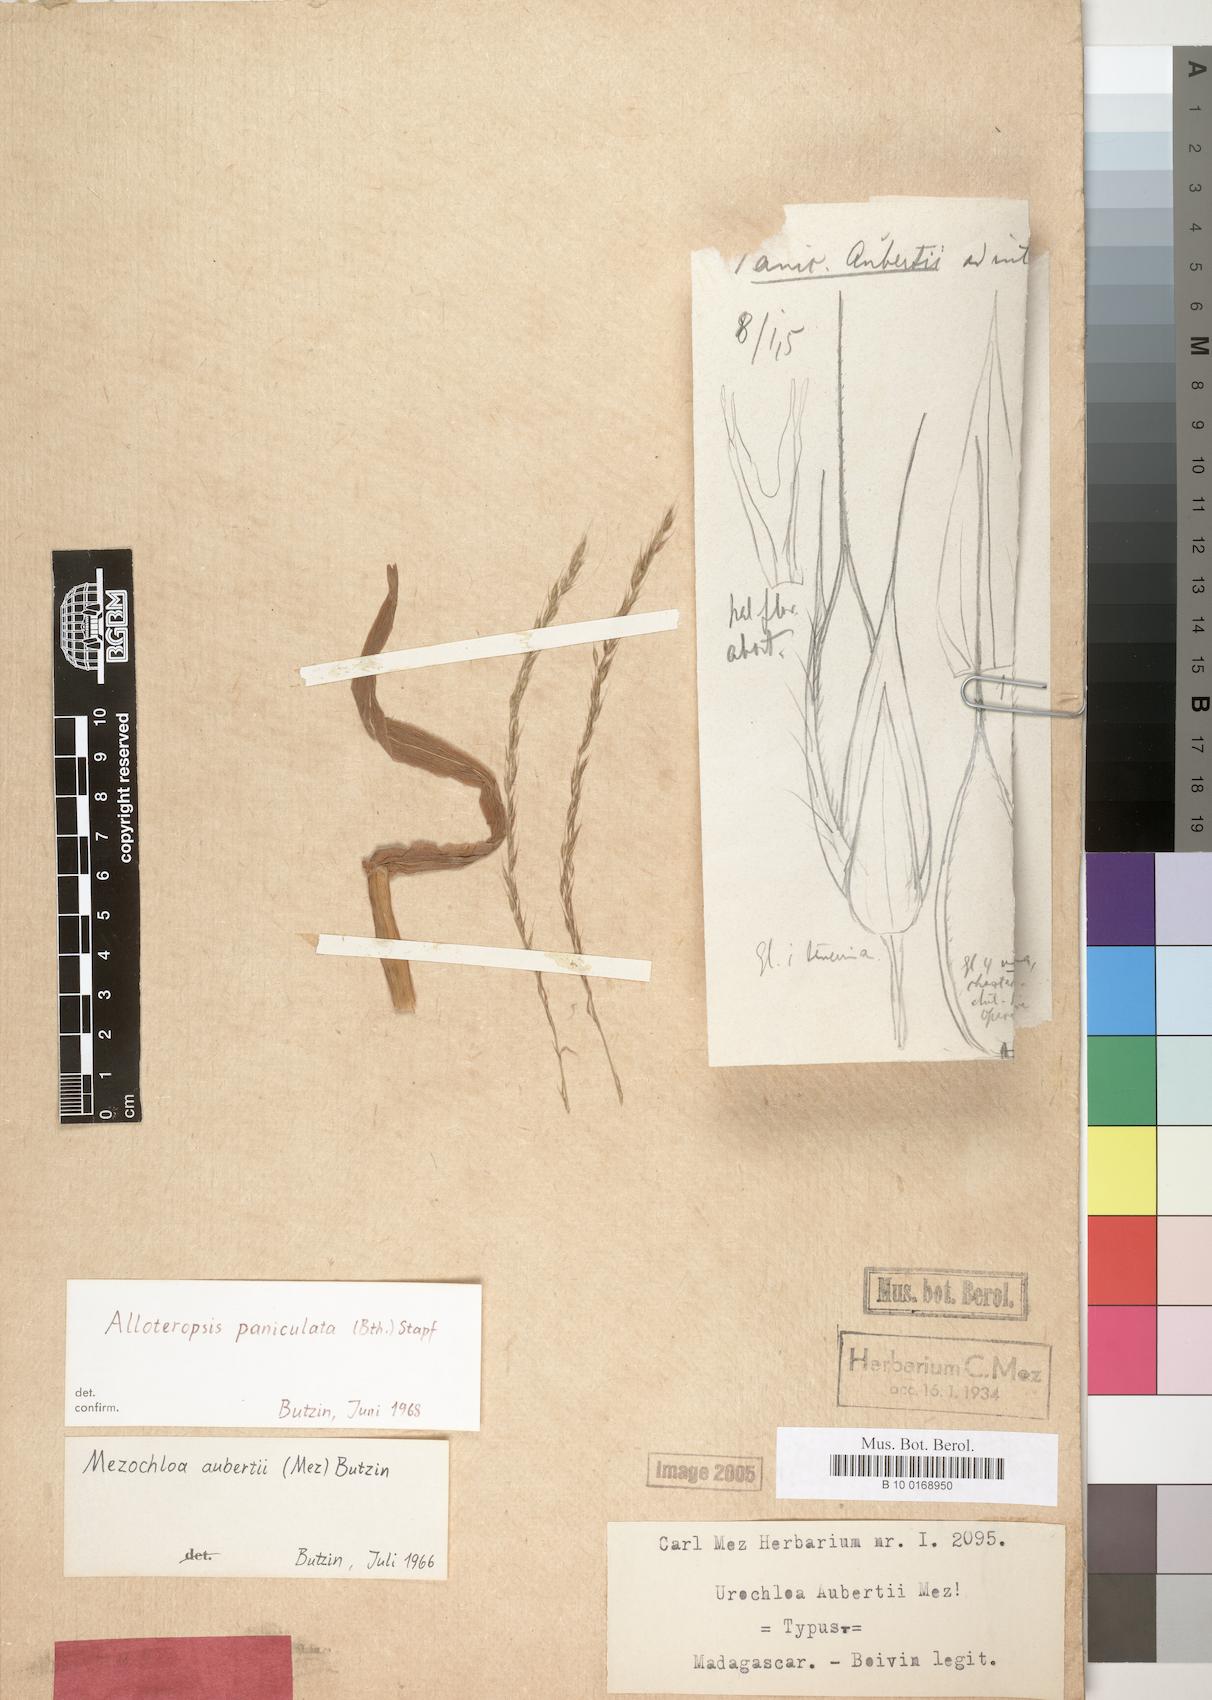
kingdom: Plantae
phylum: Tracheophyta
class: Liliopsida
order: Poales
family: Poaceae
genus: Urochloa
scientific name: Urochloa
